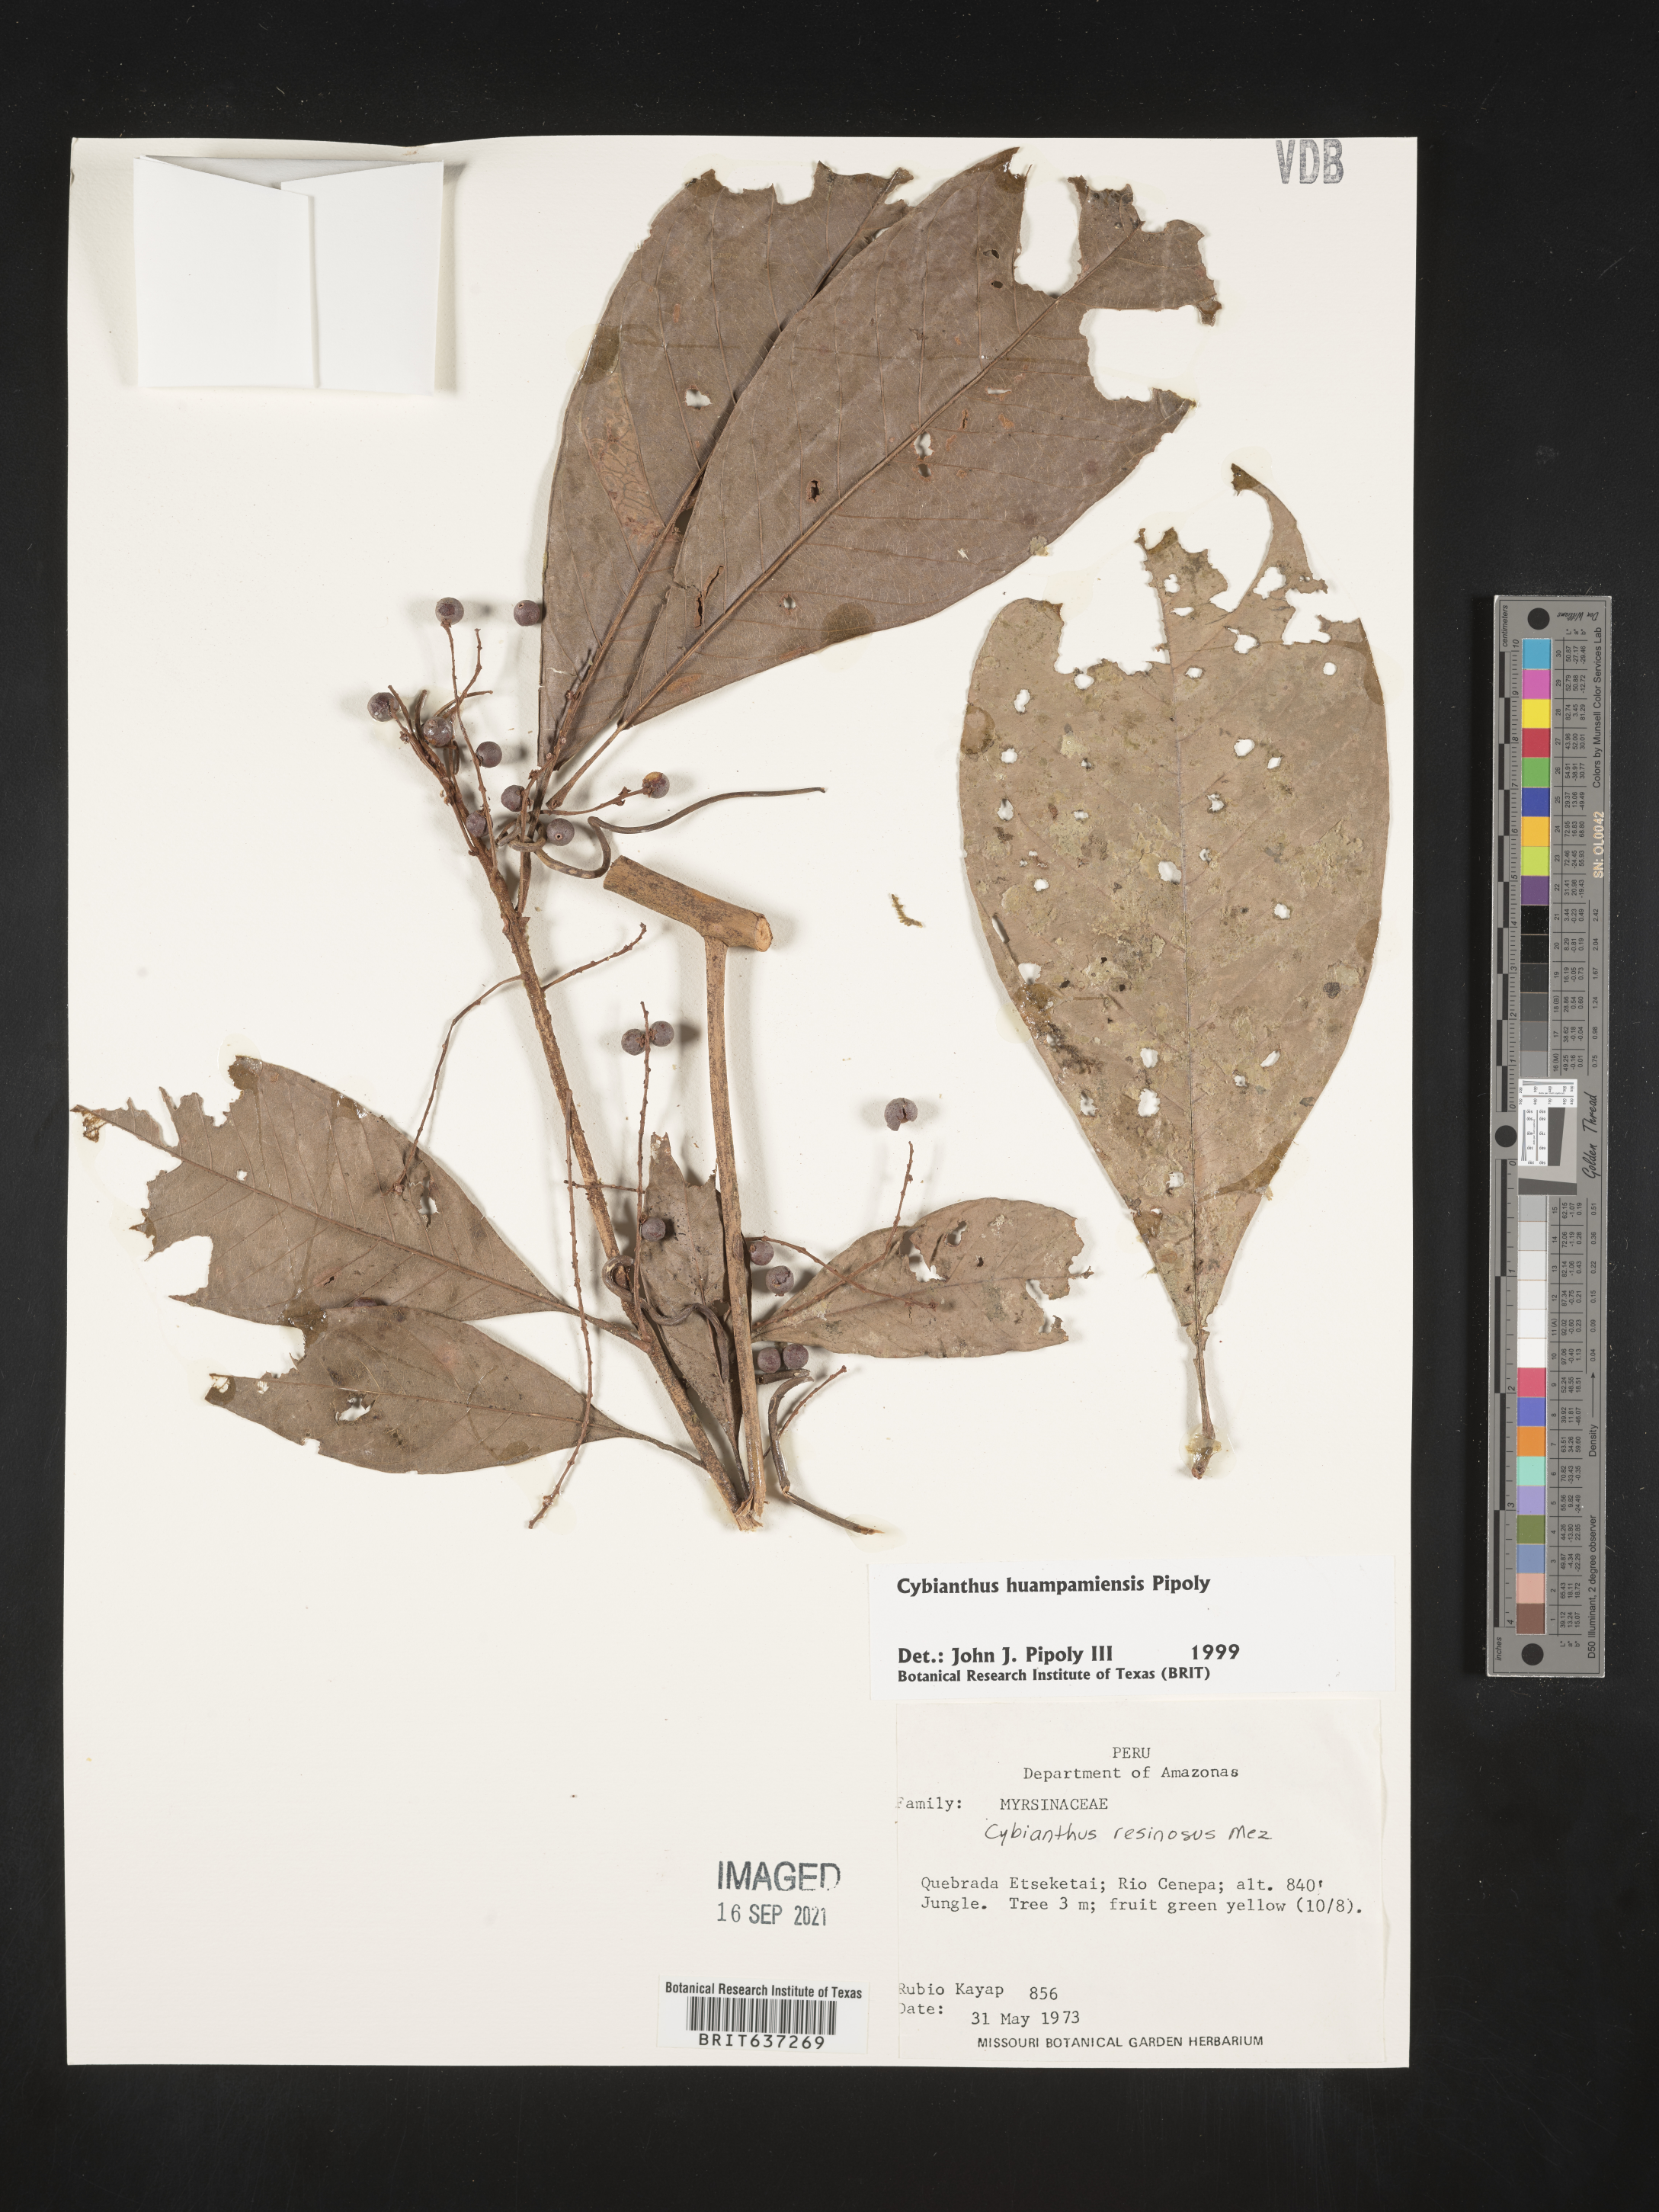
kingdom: Plantae
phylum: Tracheophyta
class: Magnoliopsida
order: Ericales
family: Primulaceae
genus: Cybianthus
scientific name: Cybianthus
